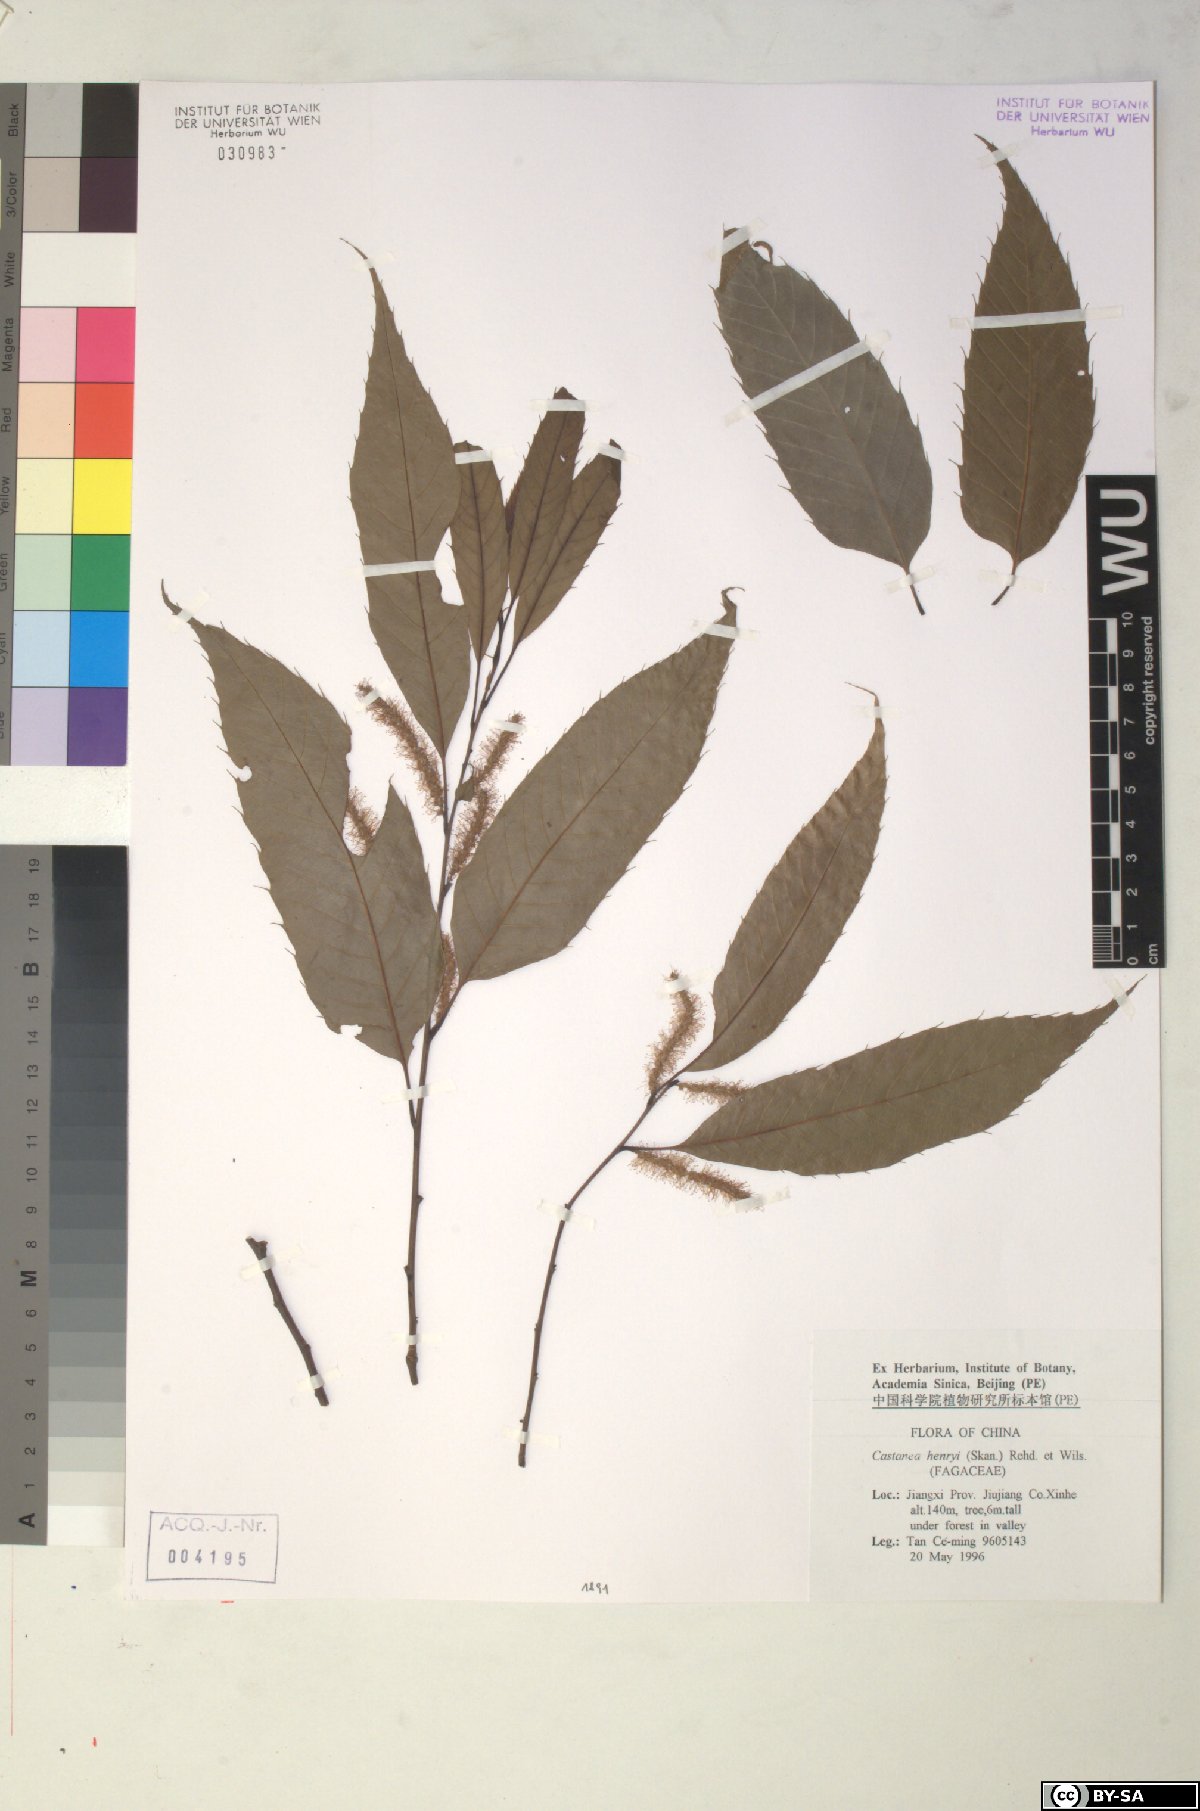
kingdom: Plantae
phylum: Tracheophyta
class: Magnoliopsida
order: Fagales
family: Fagaceae
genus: Castanea
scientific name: Castanea henryi
